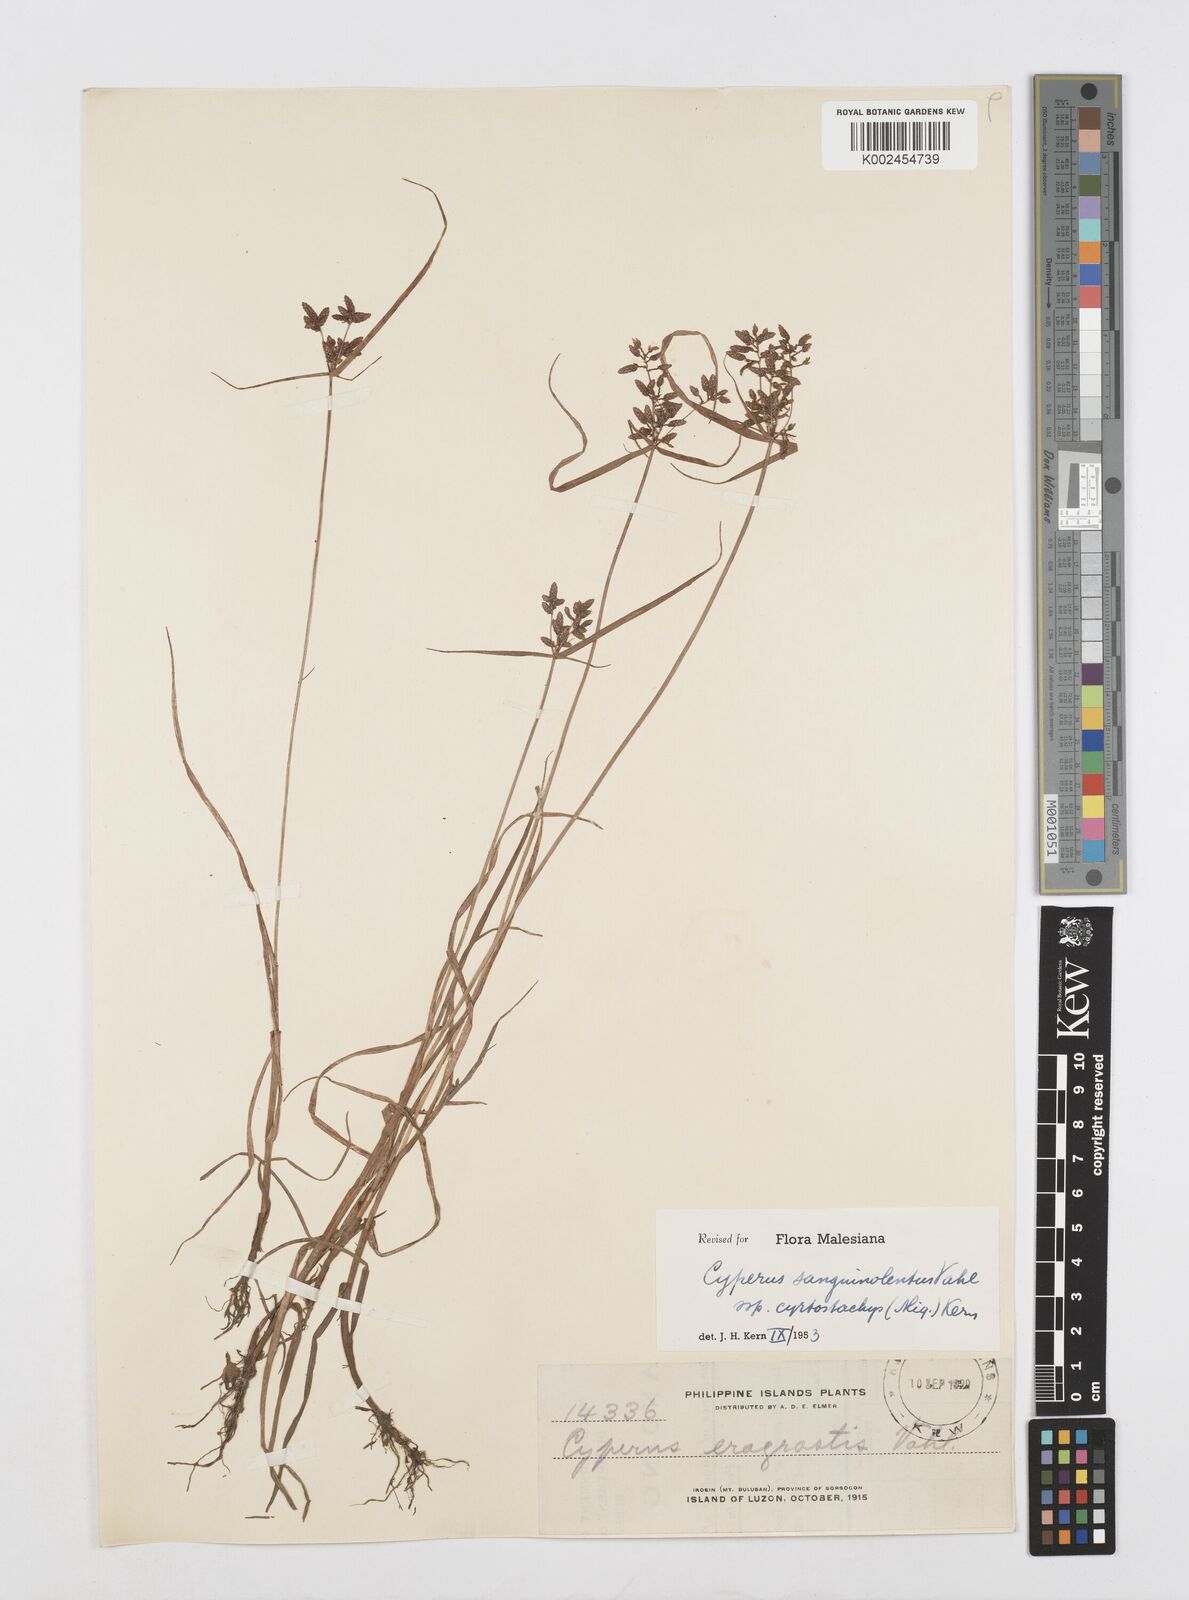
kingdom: Plantae
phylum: Tracheophyta
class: Liliopsida
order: Poales
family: Cyperaceae
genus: Cyperus
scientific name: Cyperus sanguinolentus
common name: Purpleglume flatsedge
